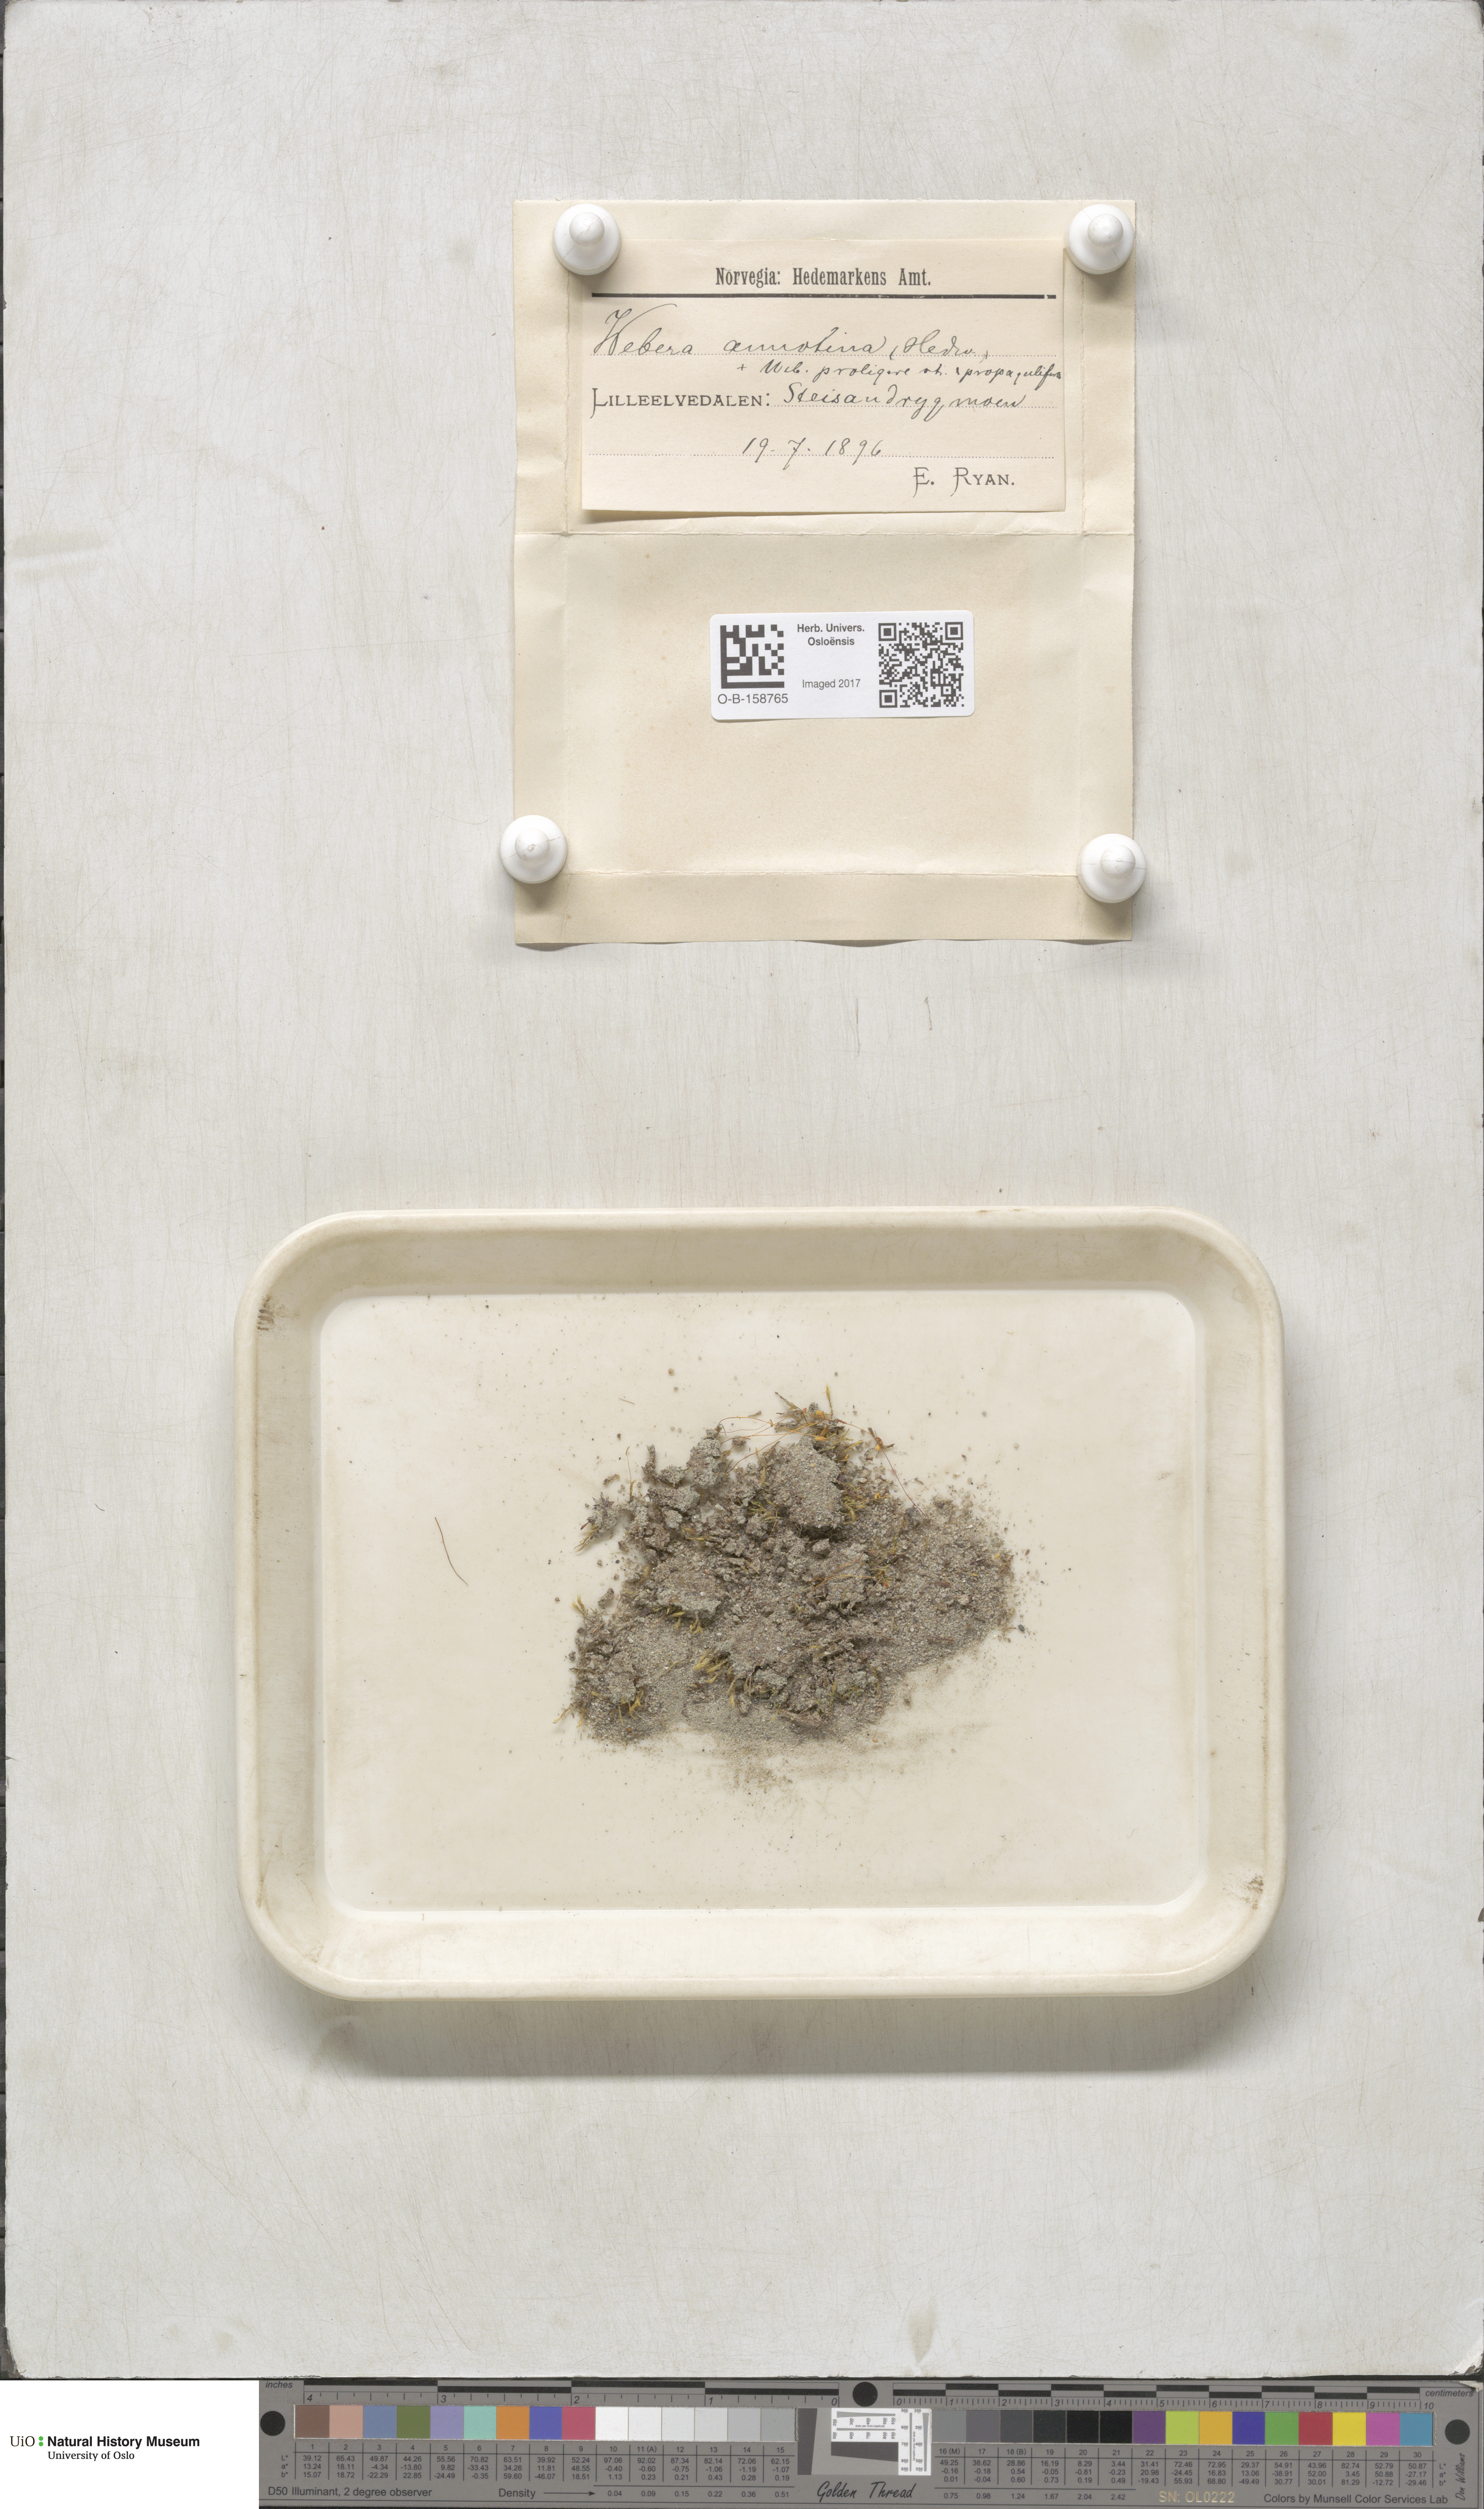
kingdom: Plantae
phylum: Bryophyta
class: Bryopsida
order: Bryales
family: Mniaceae
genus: Pohlia
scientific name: Pohlia annotina
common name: Pale-fruited nodding moss
